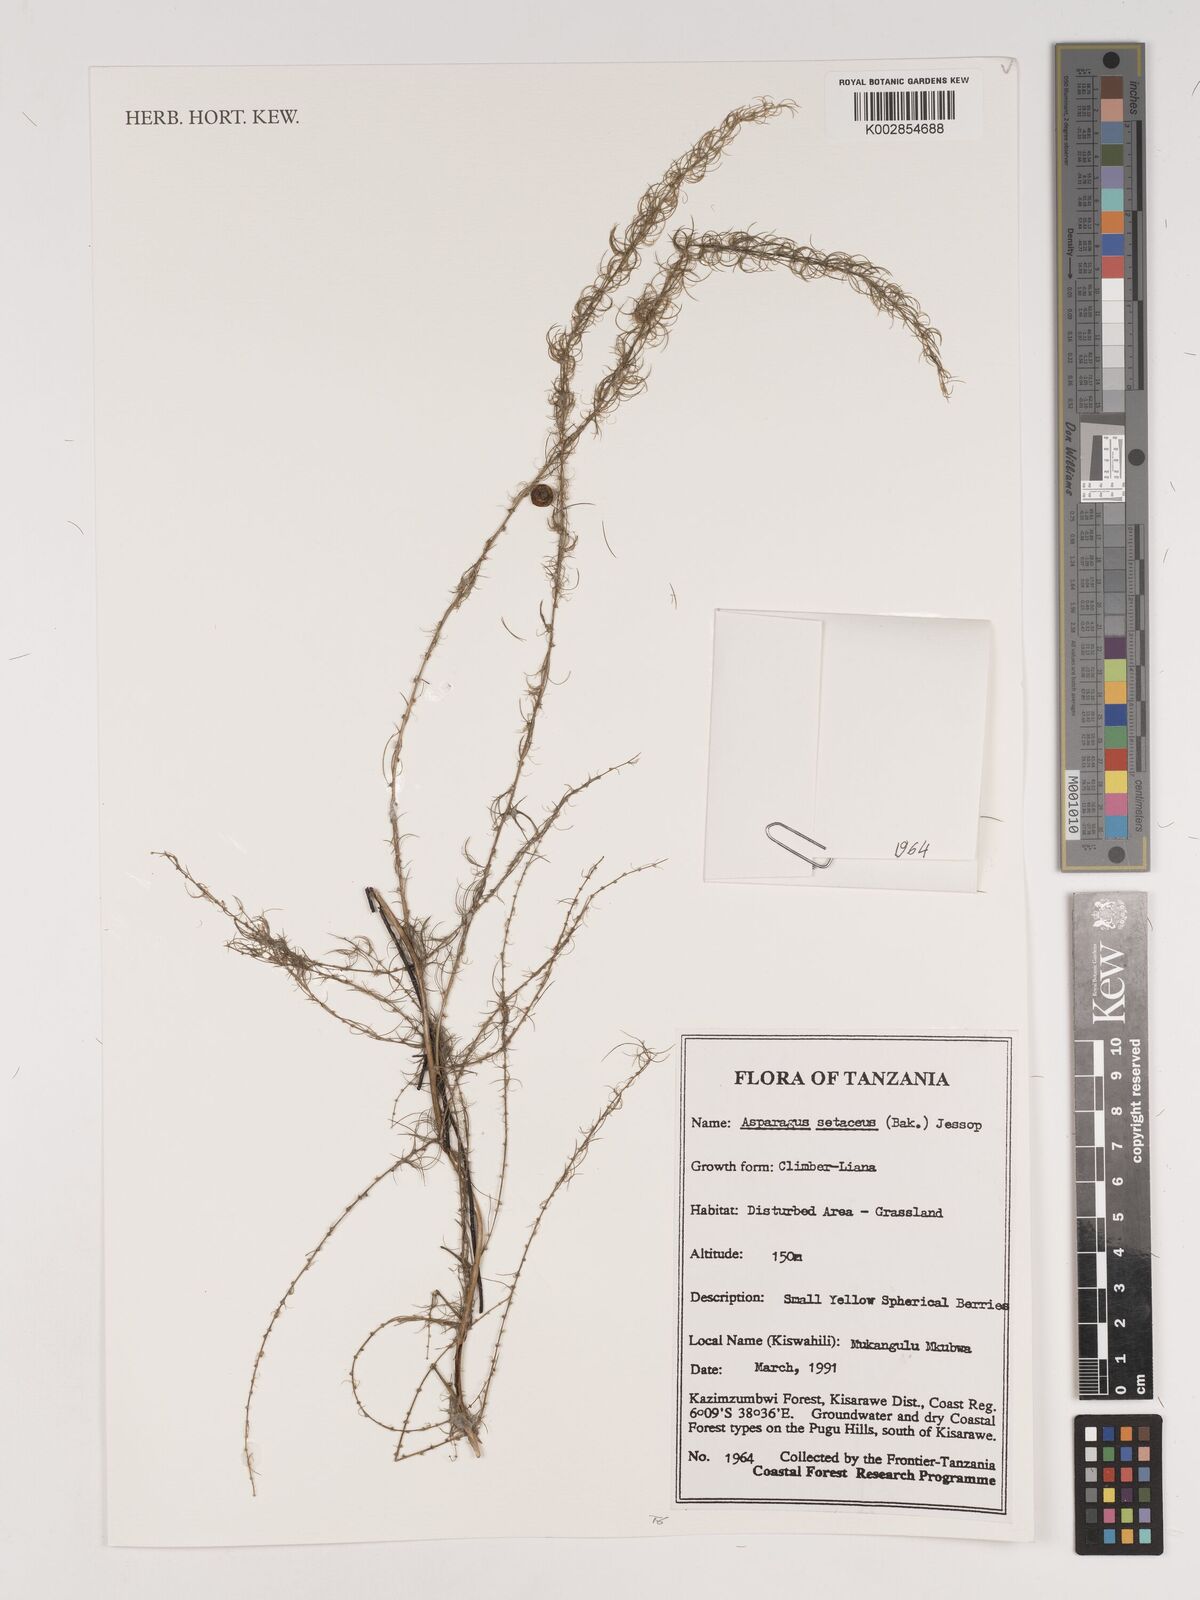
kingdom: Plantae
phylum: Tracheophyta
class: Liliopsida
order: Asparagales
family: Asparagaceae
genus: Asparagus
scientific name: Asparagus setaceus
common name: Common asparagus fern
